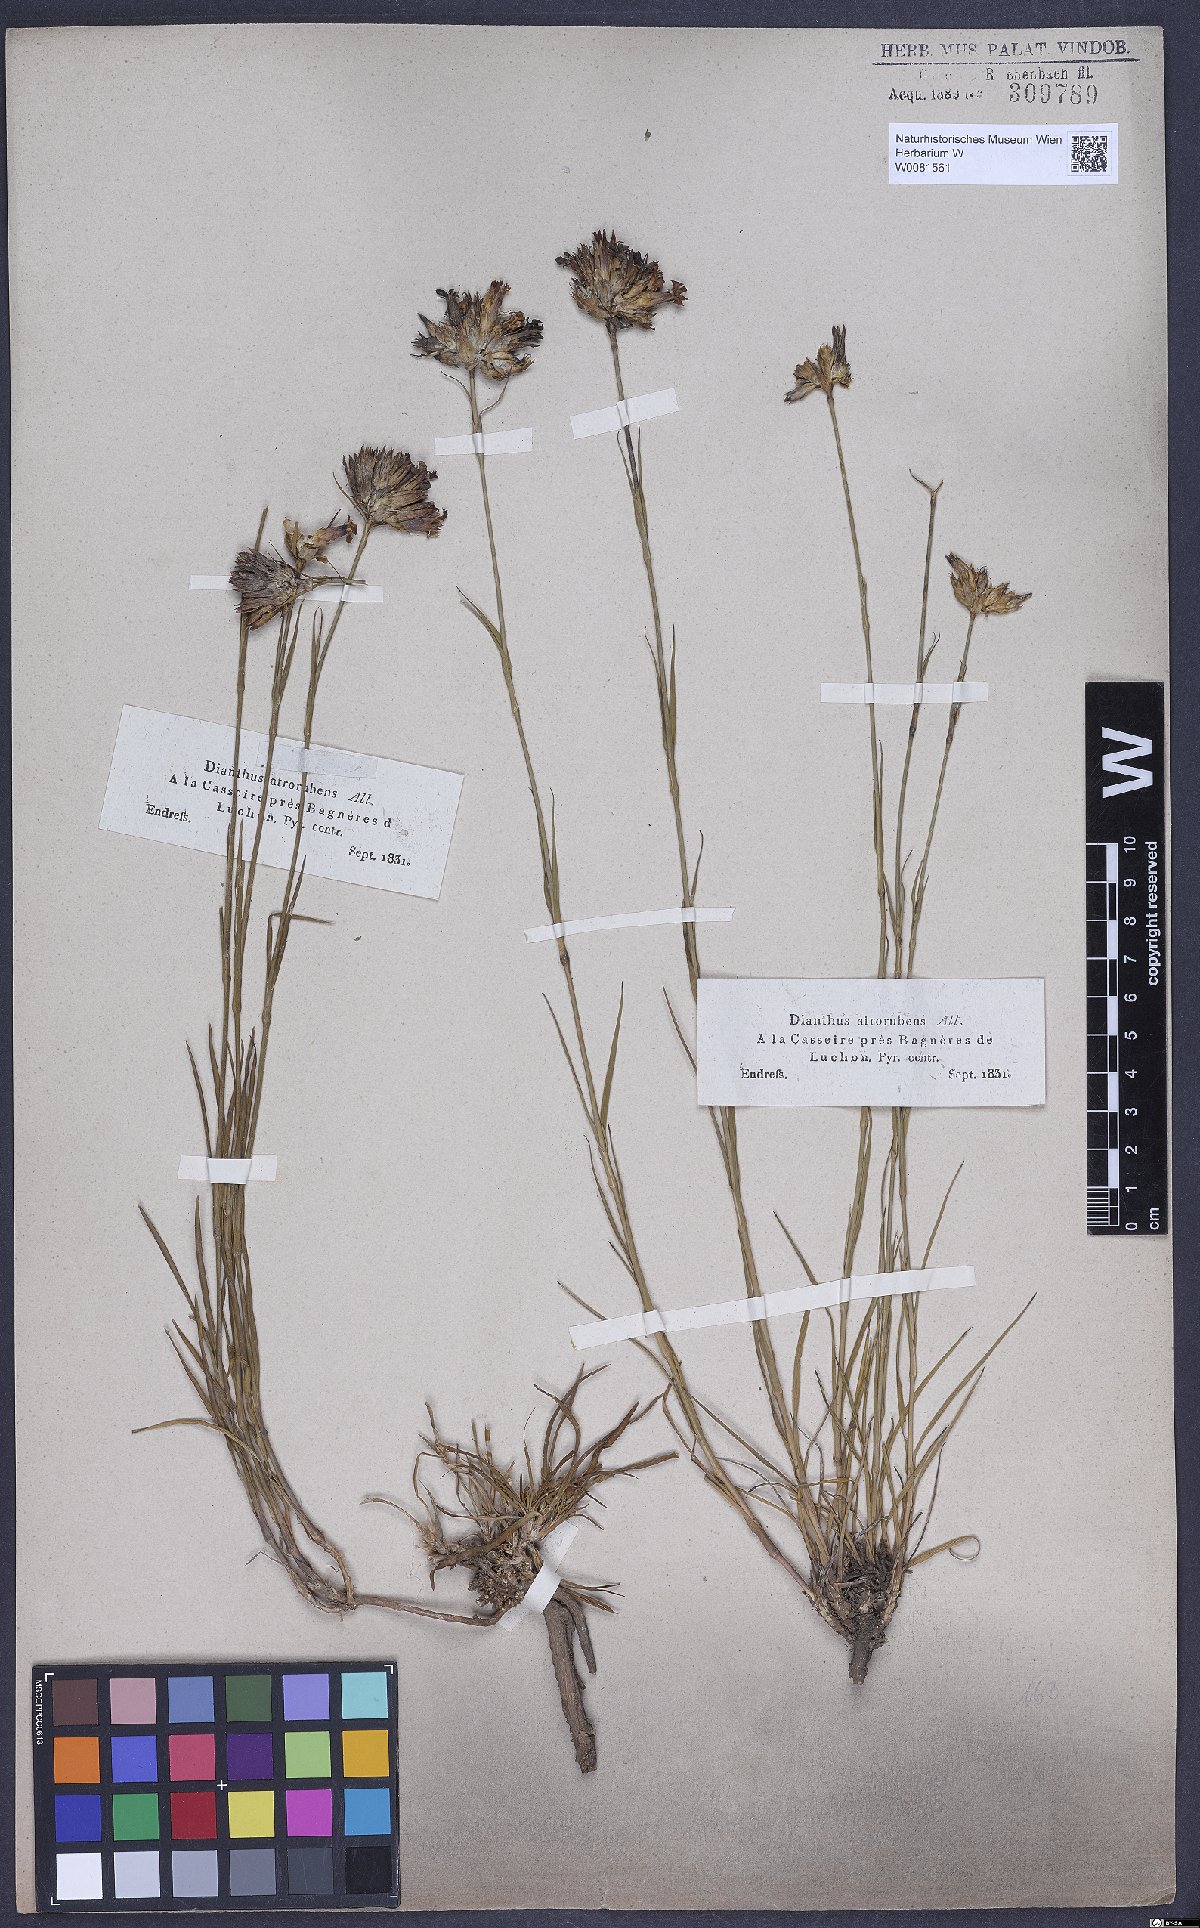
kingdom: Plantae
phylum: Tracheophyta
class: Magnoliopsida
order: Caryophyllales
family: Caryophyllaceae
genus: Dianthus
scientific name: Dianthus carthusianorum
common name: Carthusian pink
